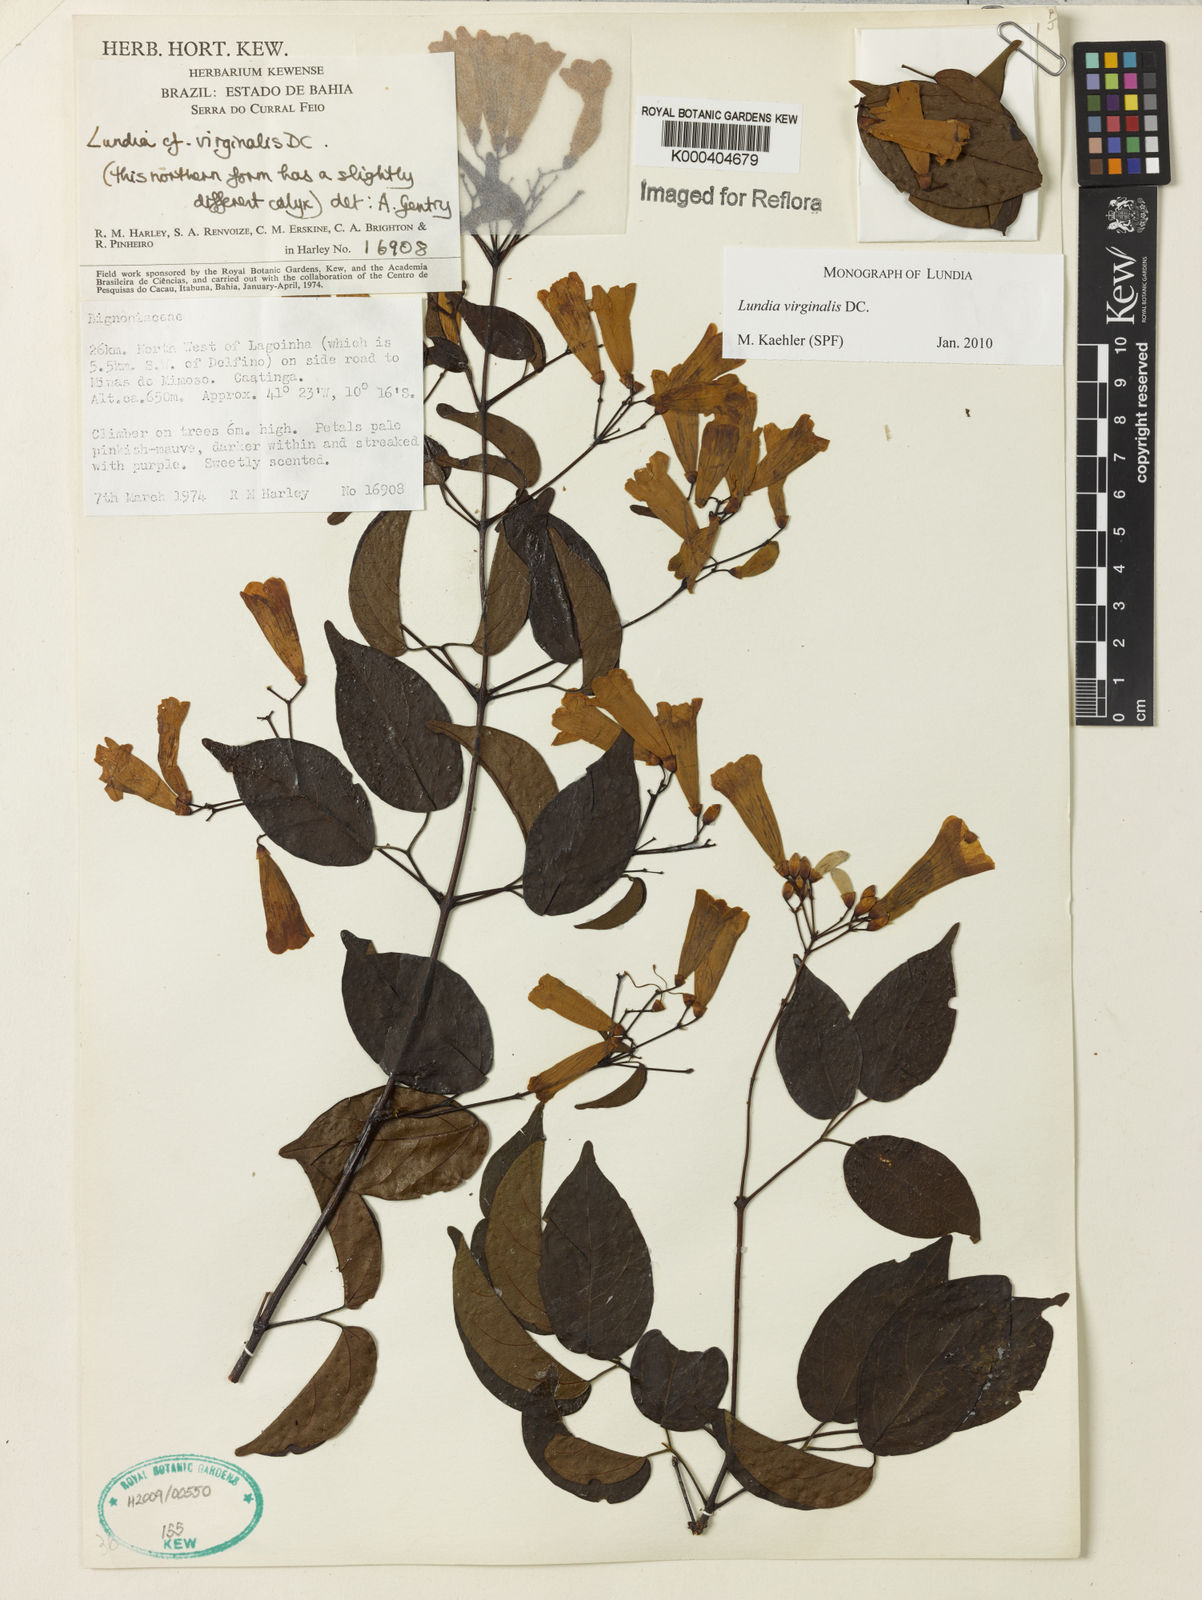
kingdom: Plantae
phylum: Tracheophyta
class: Magnoliopsida
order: Lamiales
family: Bignoniaceae
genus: Lundia
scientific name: Lundia virginalis
